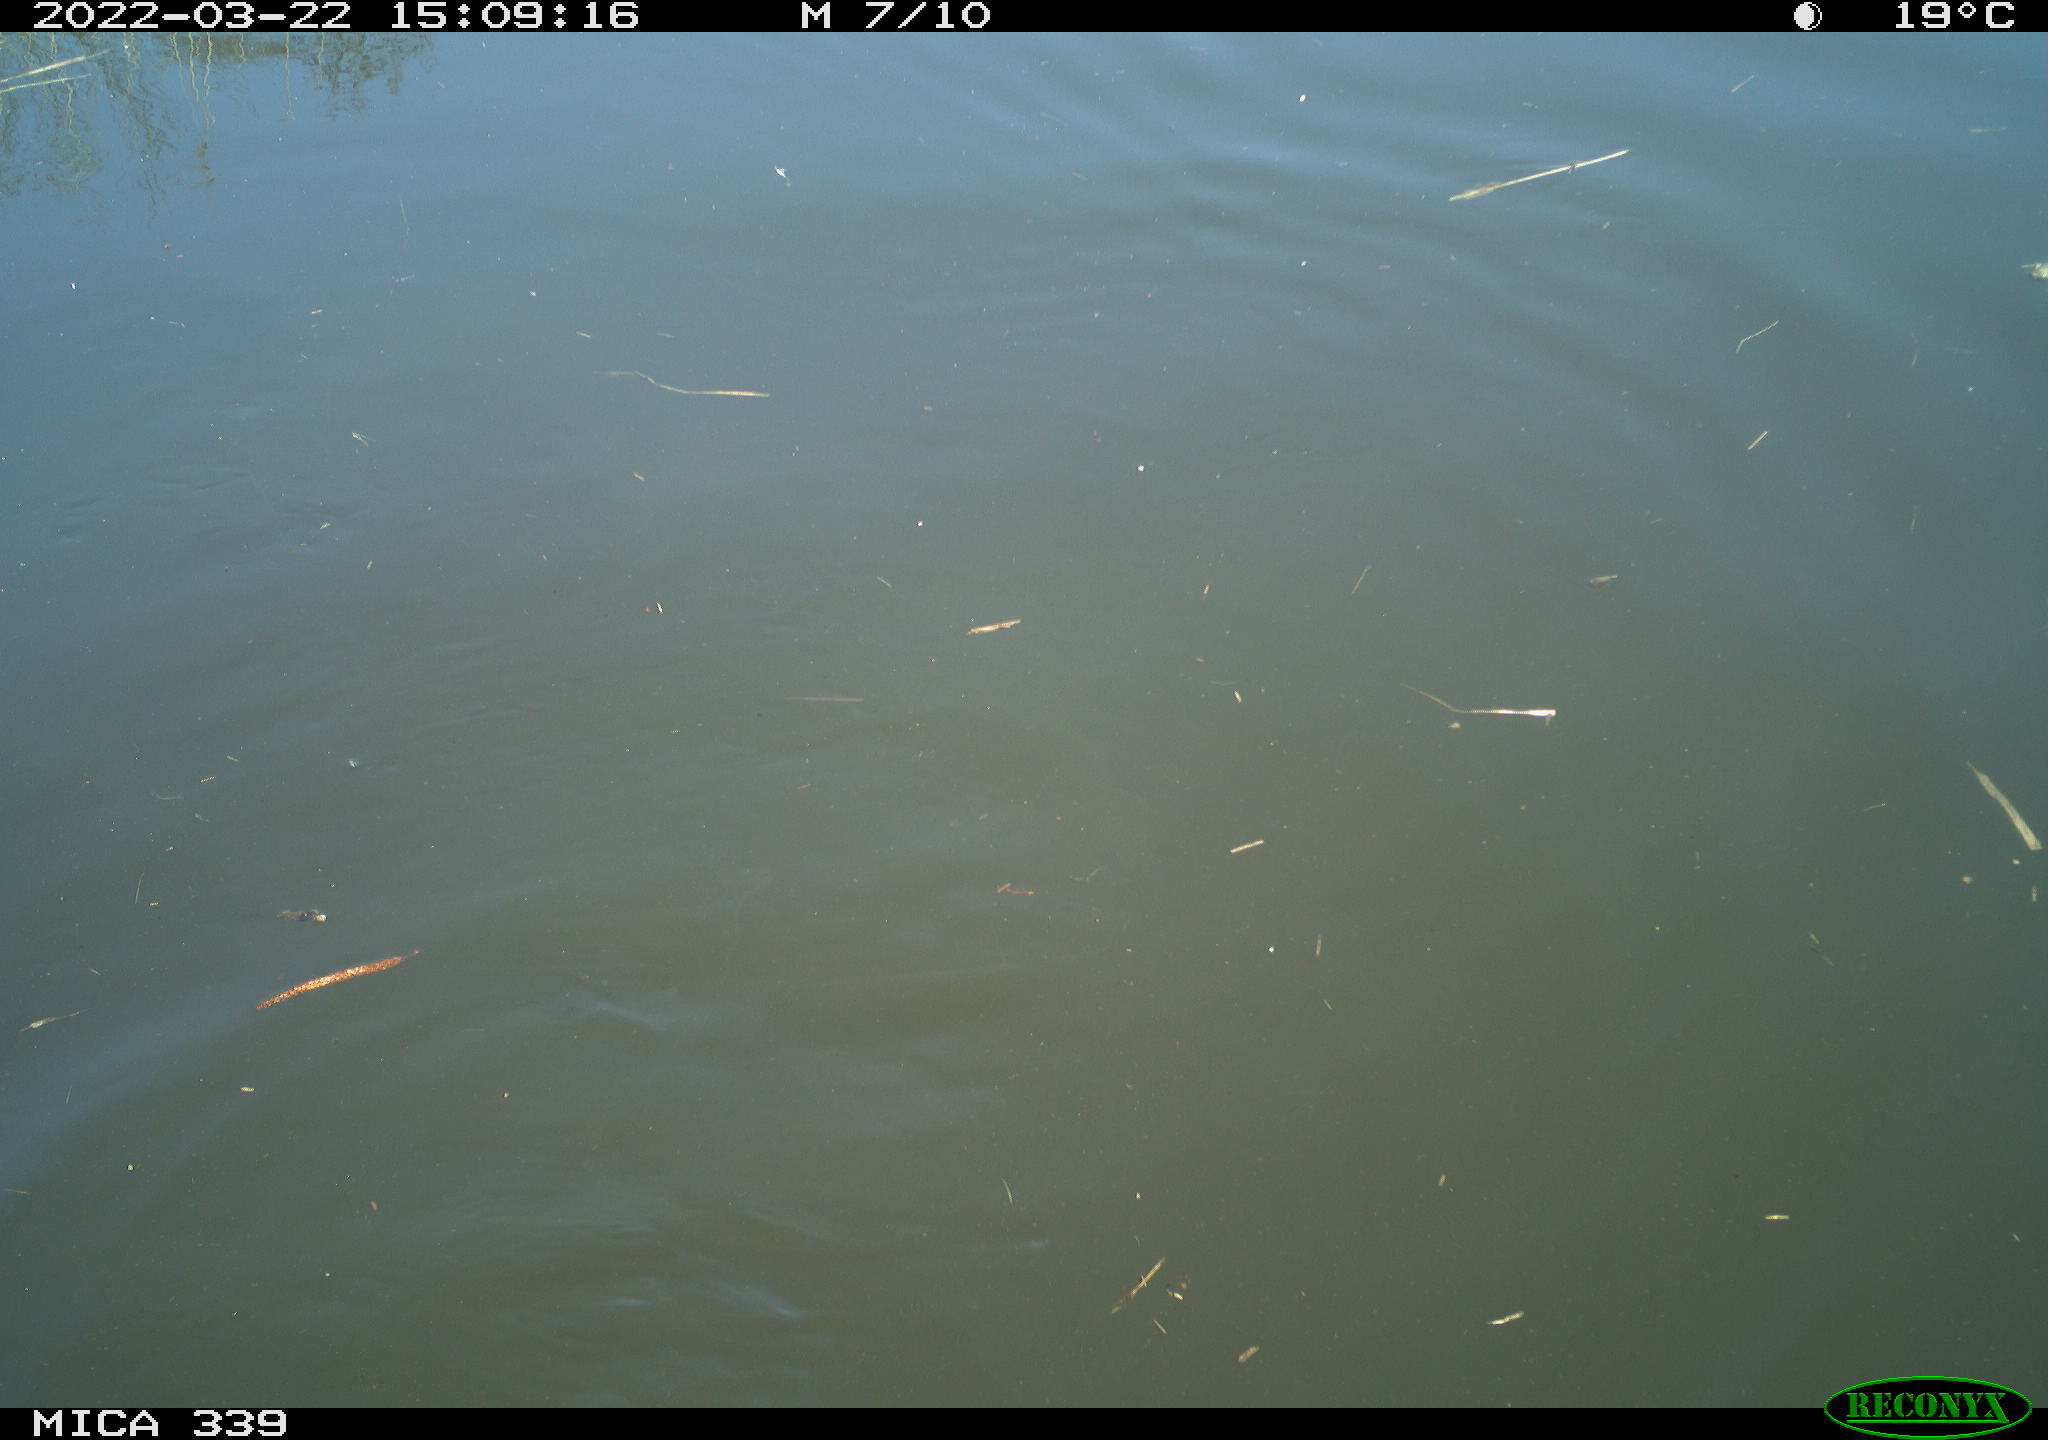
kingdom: Animalia
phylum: Chordata
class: Aves
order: Suliformes
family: Phalacrocoracidae
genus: Phalacrocorax
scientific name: Phalacrocorax carbo
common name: Great cormorant
